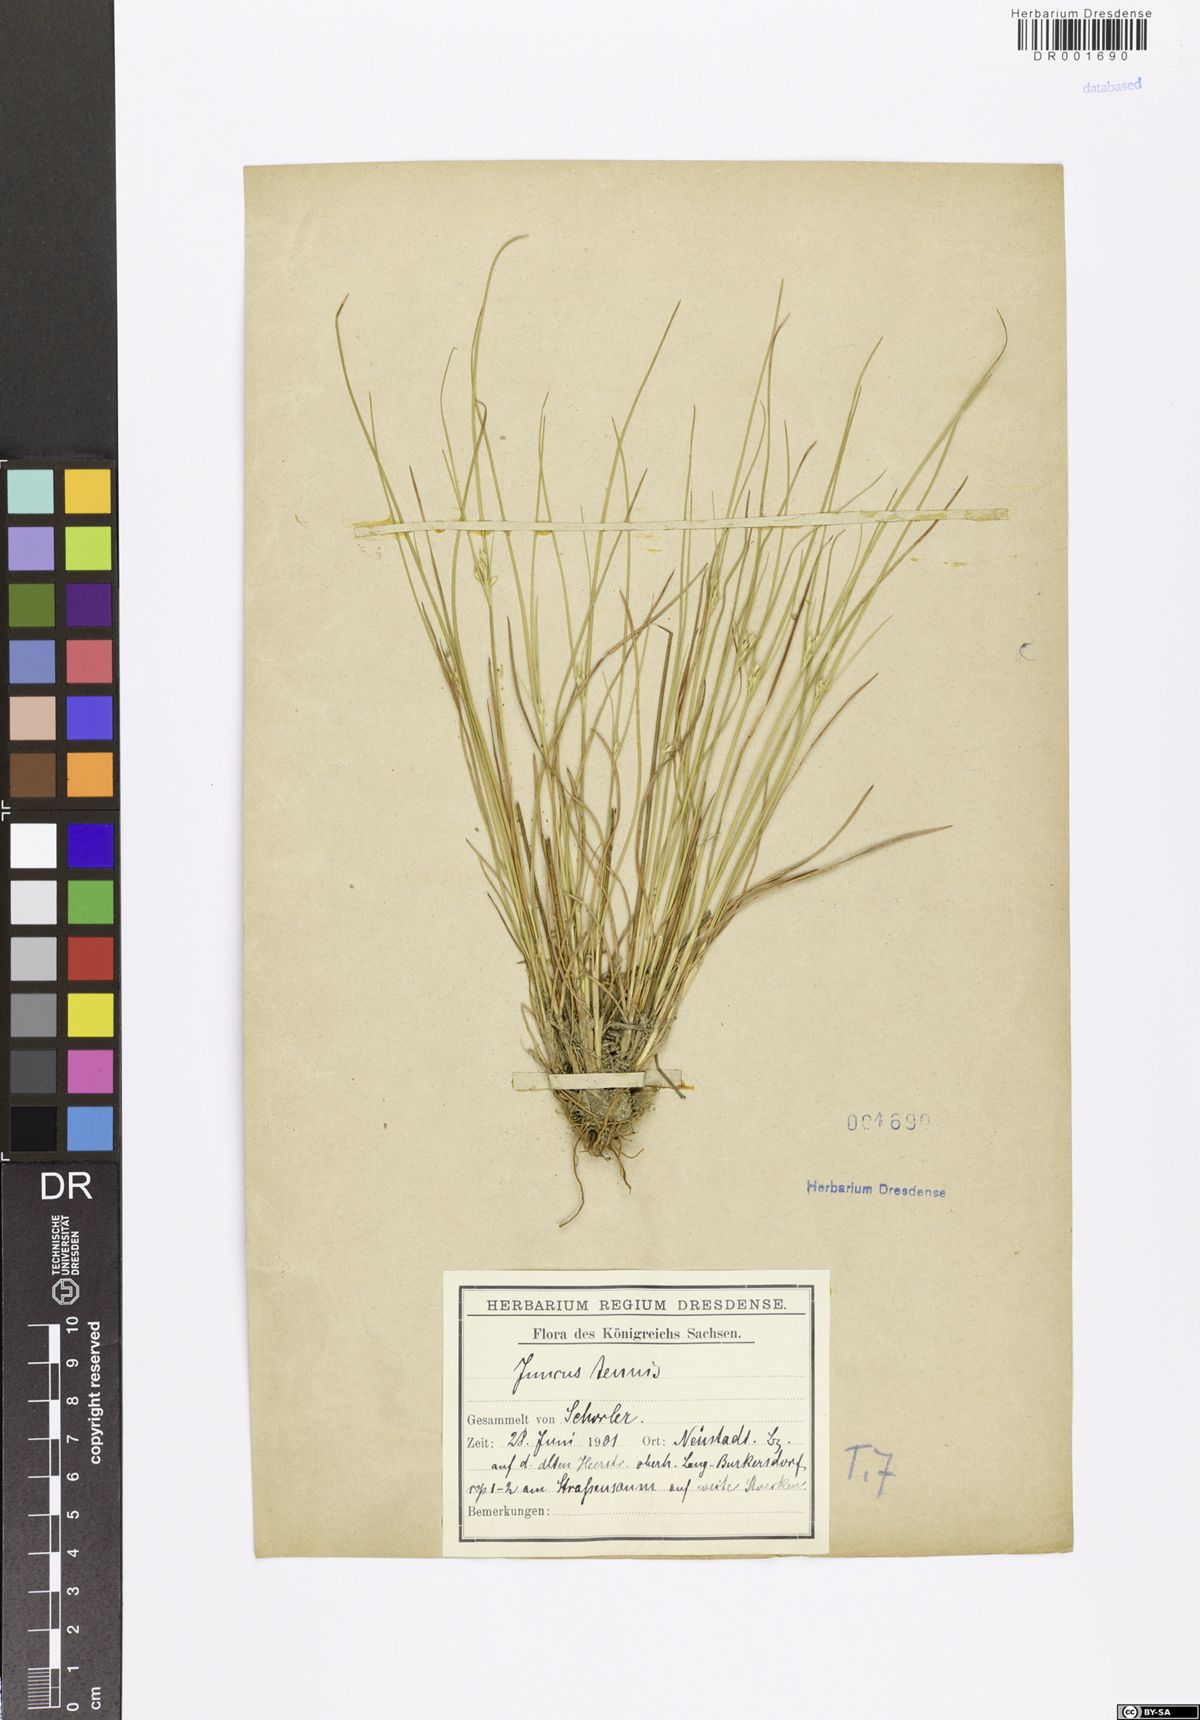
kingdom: Plantae
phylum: Tracheophyta
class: Liliopsida
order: Poales
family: Juncaceae
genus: Juncus
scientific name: Juncus tenuis
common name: Slender rush
